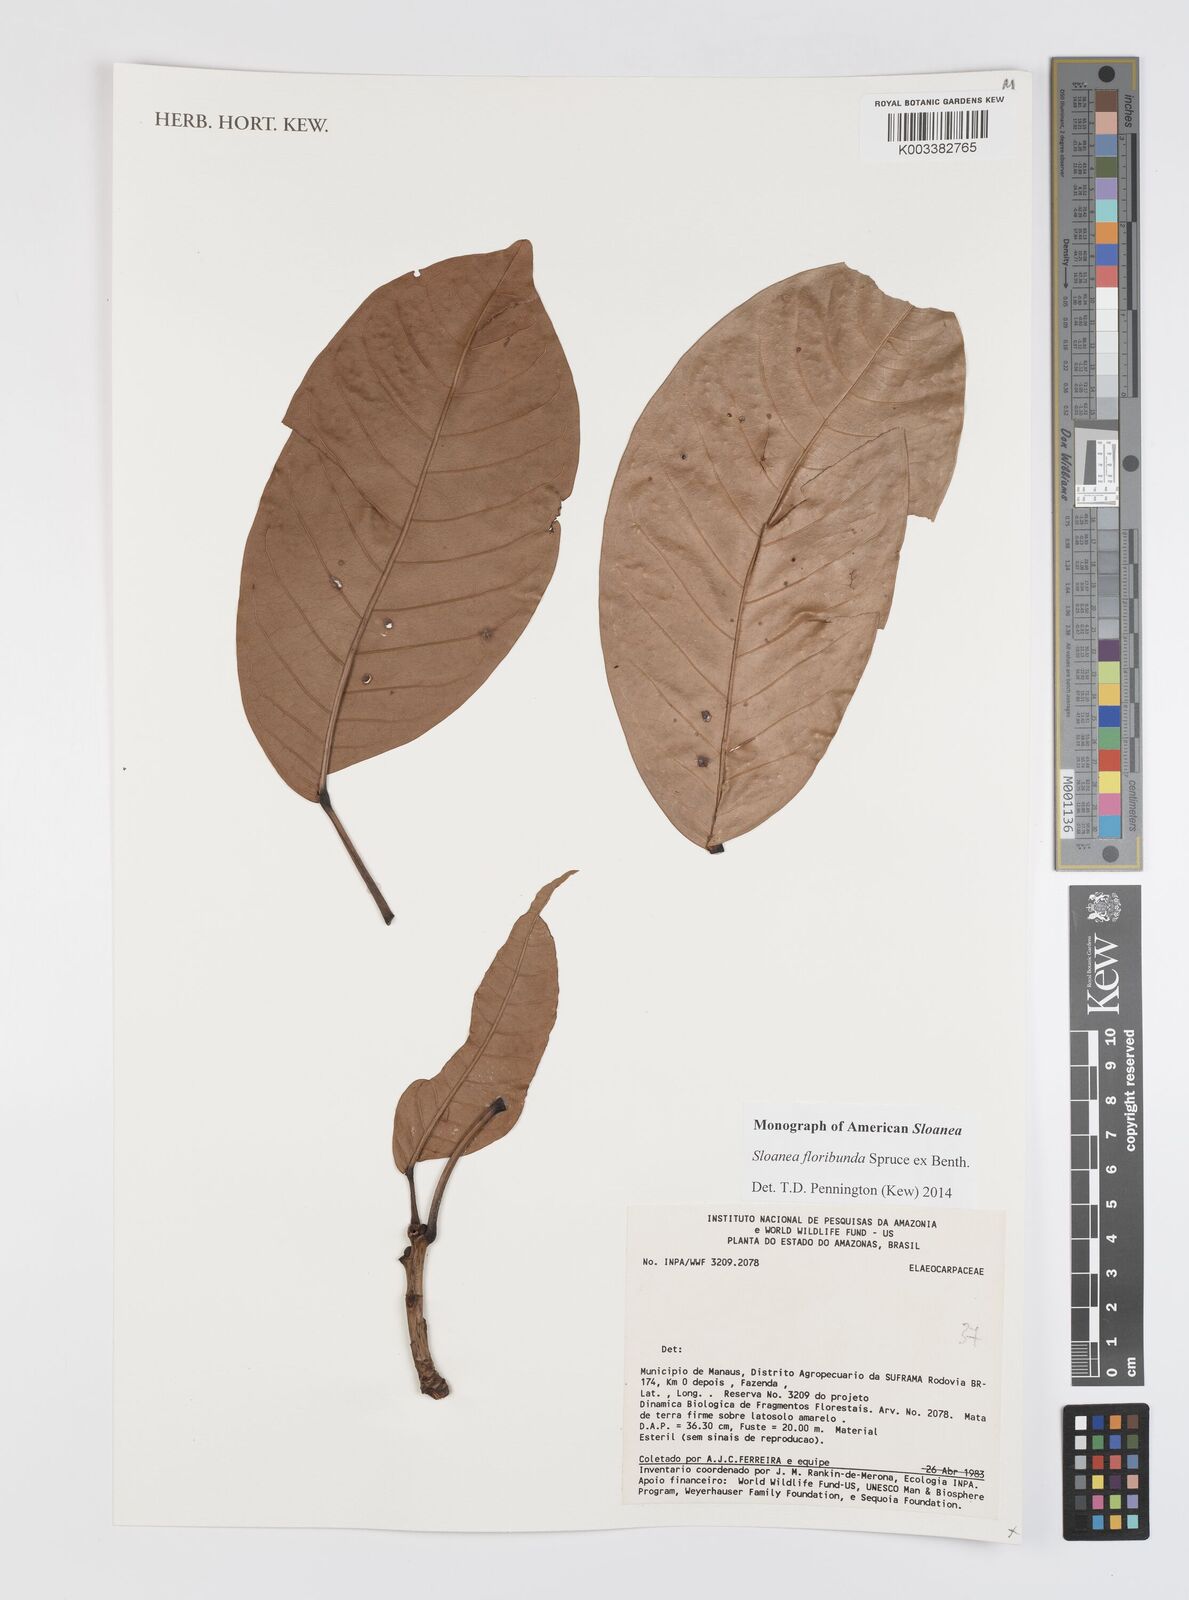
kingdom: Plantae
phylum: Tracheophyta
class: Magnoliopsida
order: Oxalidales
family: Elaeocarpaceae
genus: Sloanea
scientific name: Sloanea floribunda
